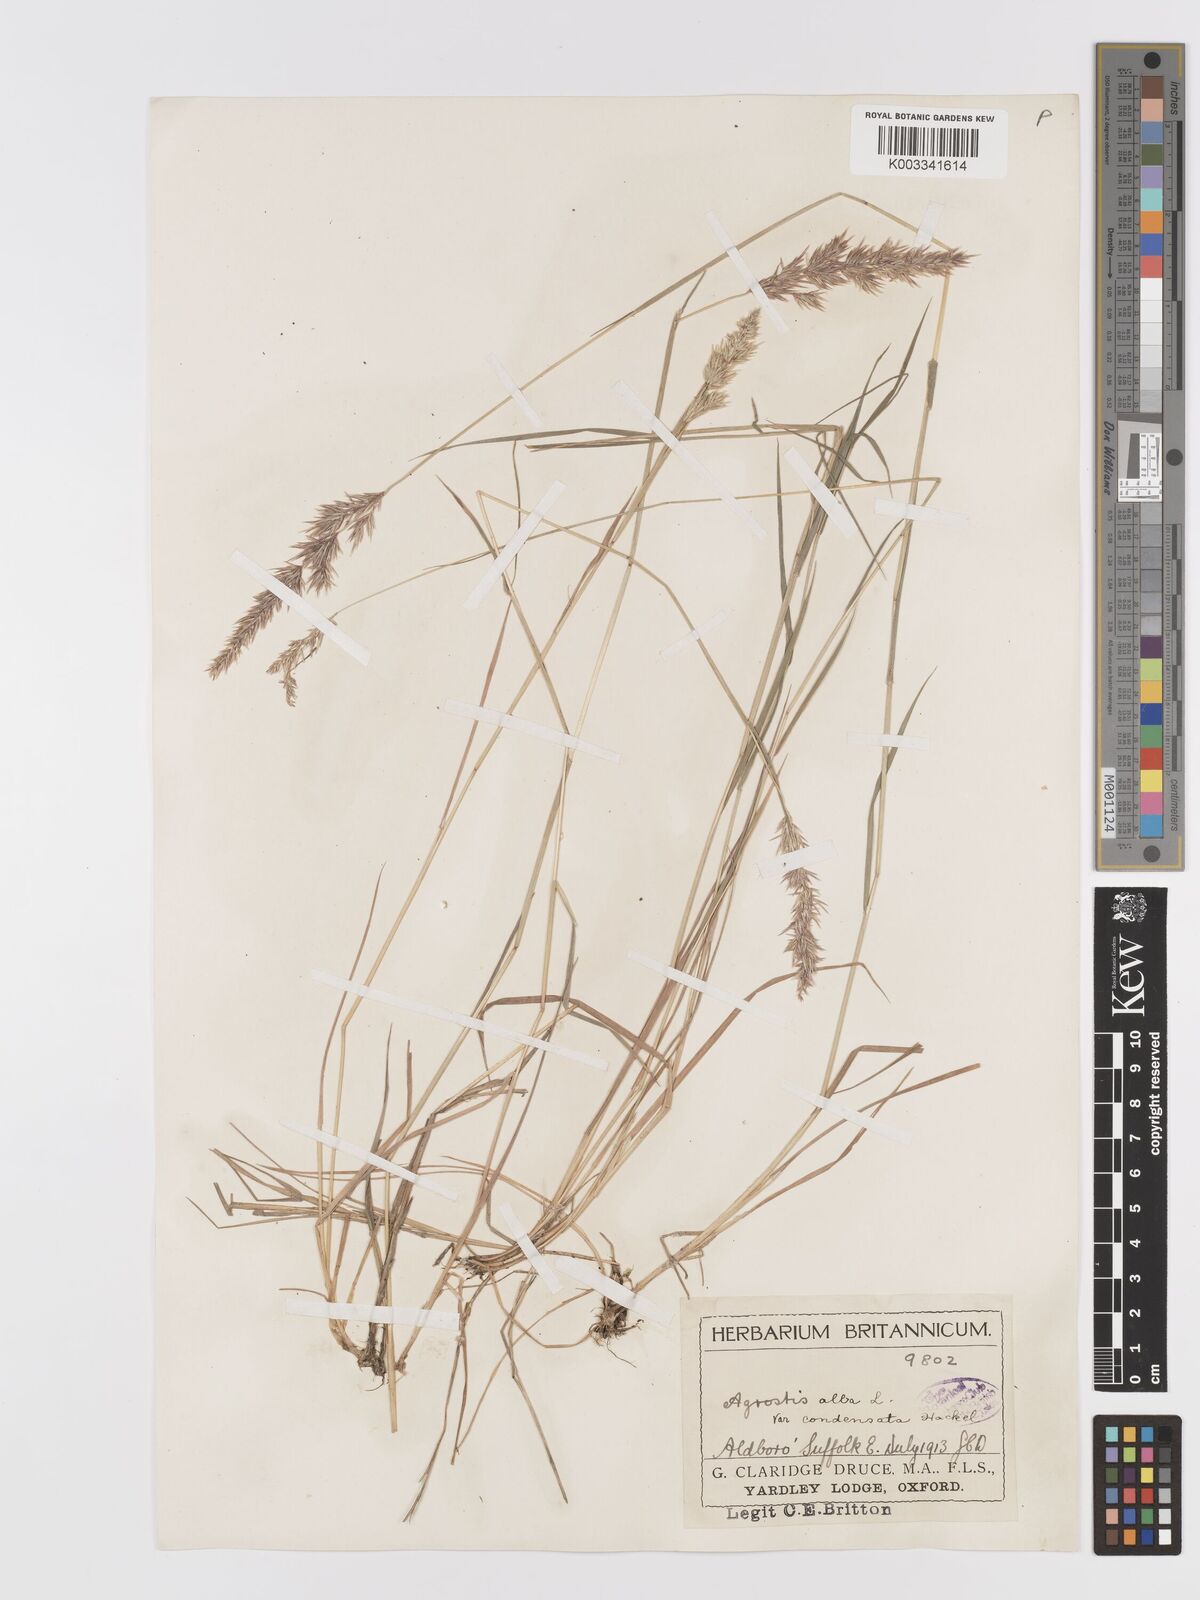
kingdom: Plantae
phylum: Tracheophyta
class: Liliopsida
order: Poales
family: Poaceae
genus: Agrostis
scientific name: Agrostis stolonifera
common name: Creeping bentgrass
